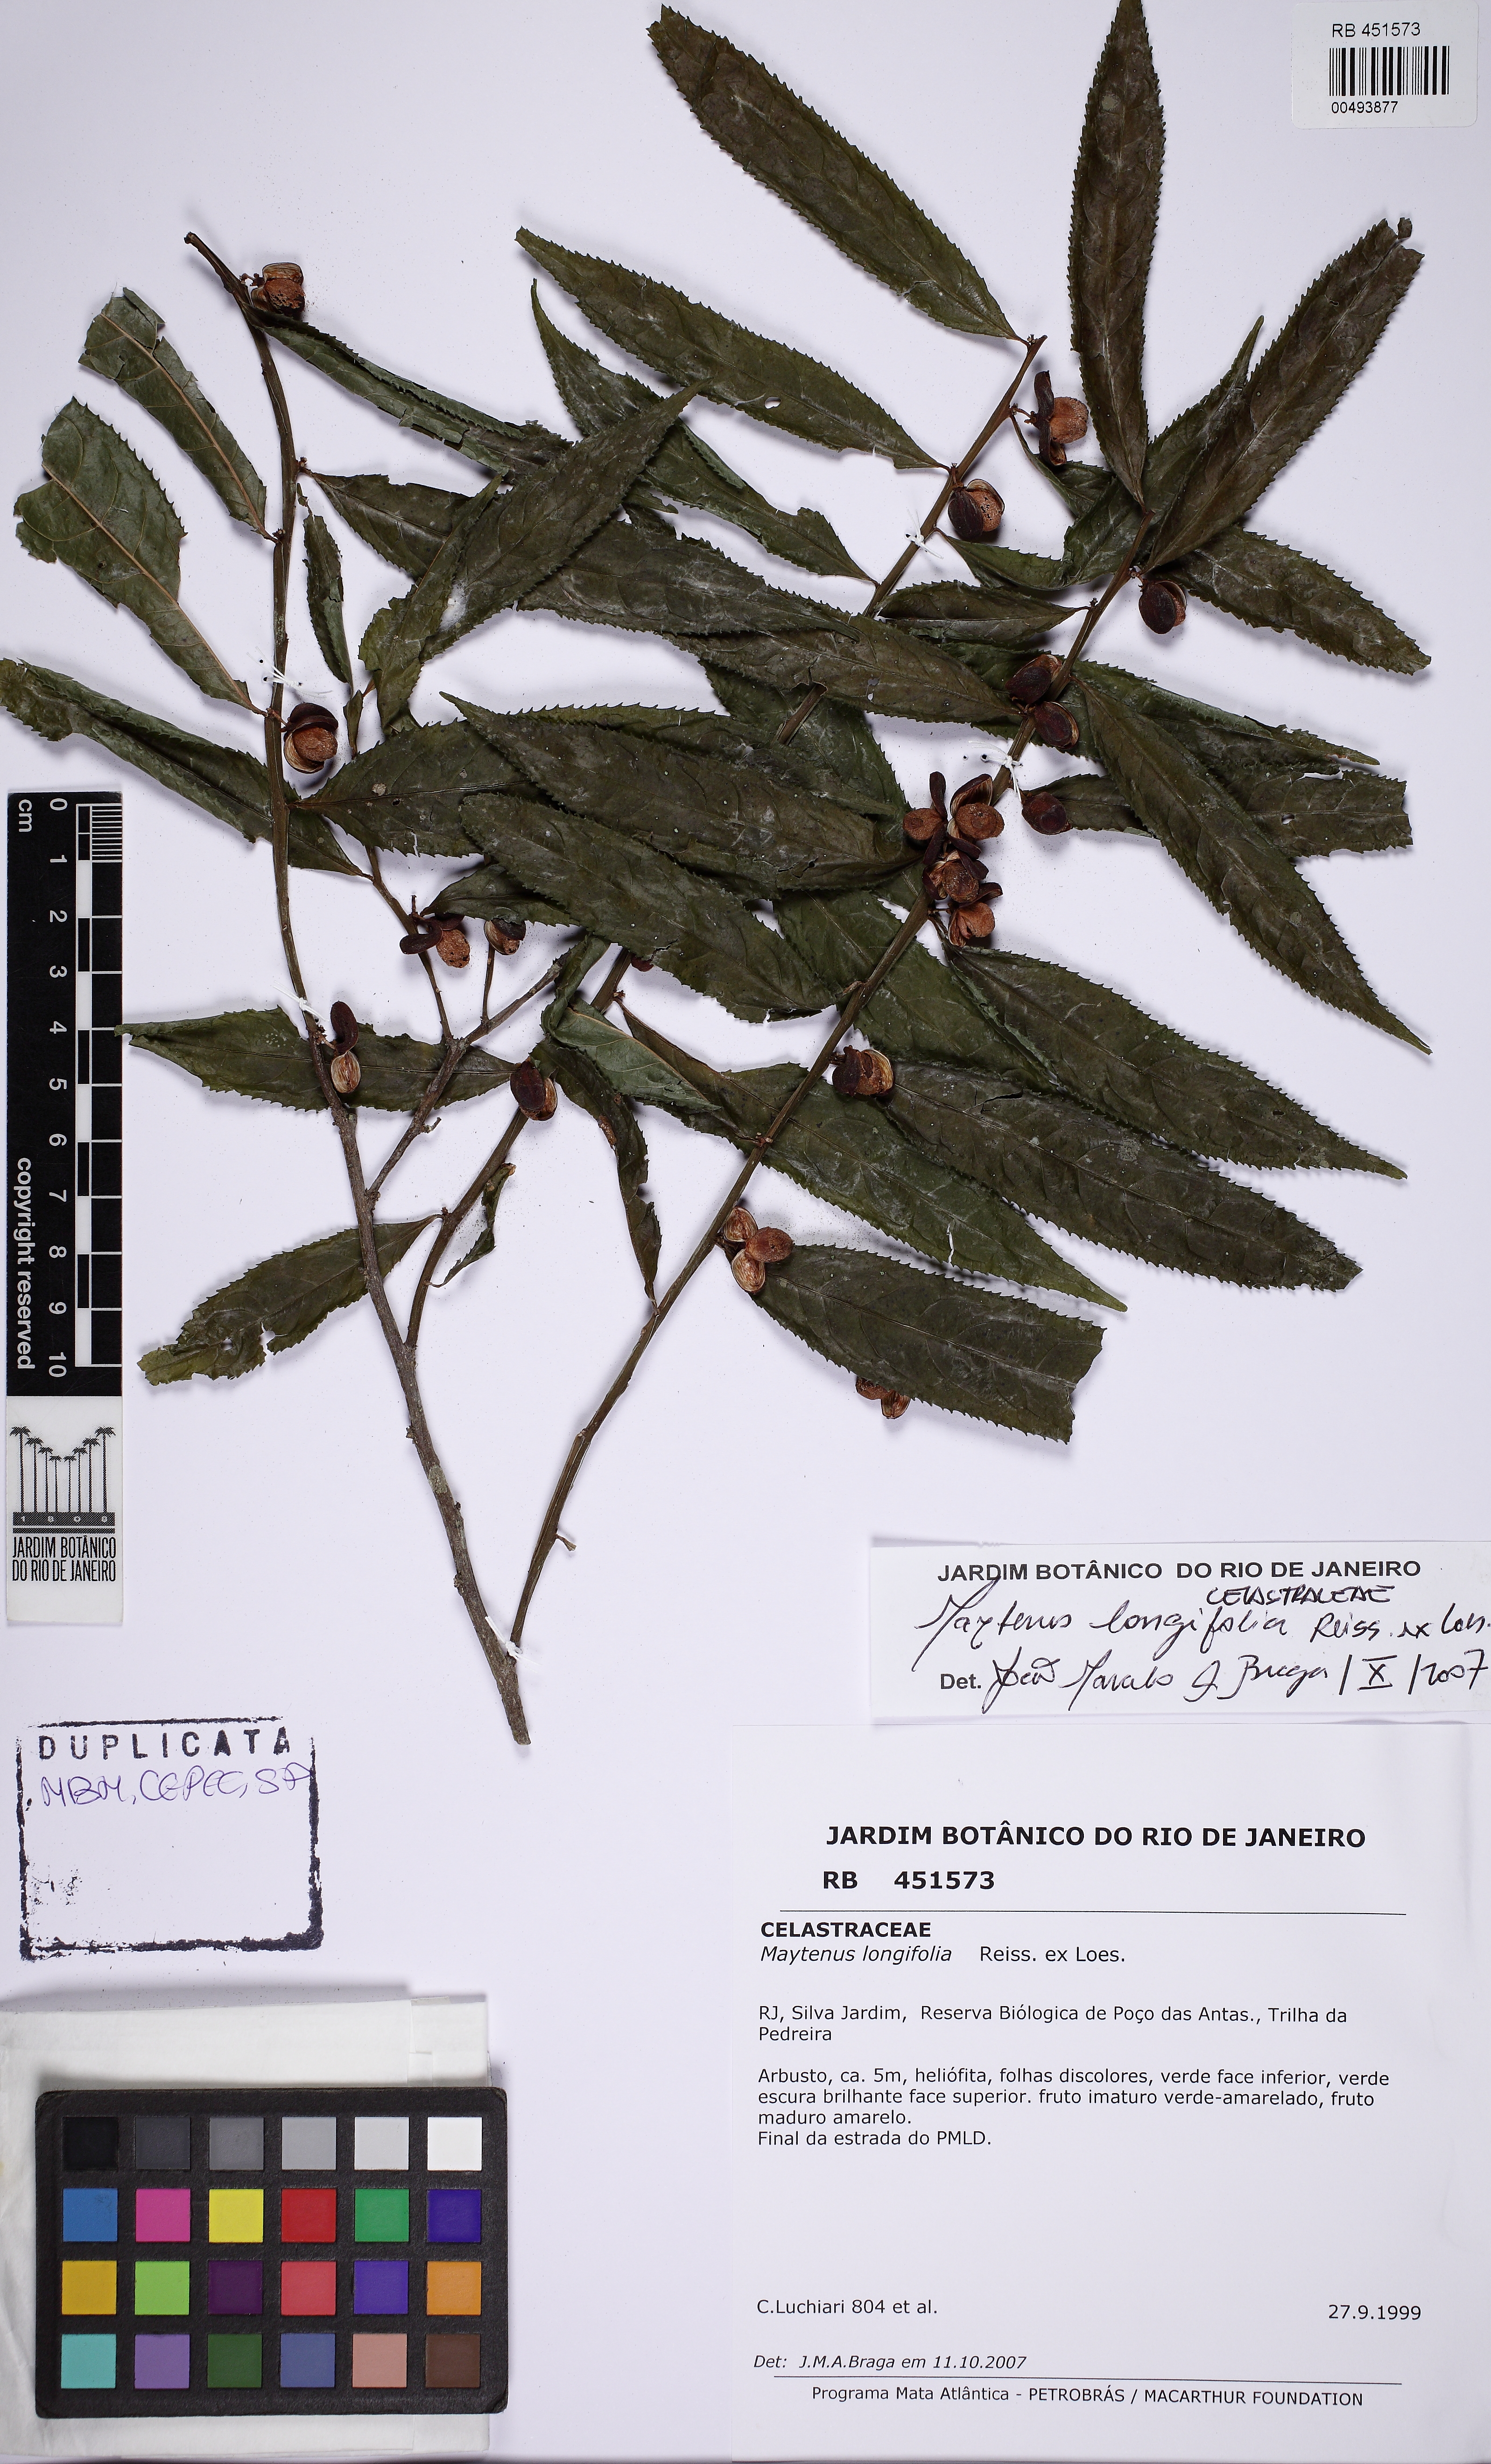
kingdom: Plantae
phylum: Tracheophyta
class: Magnoliopsida
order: Celastrales
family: Celastraceae
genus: Monteverdia
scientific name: Monteverdia longifolia
